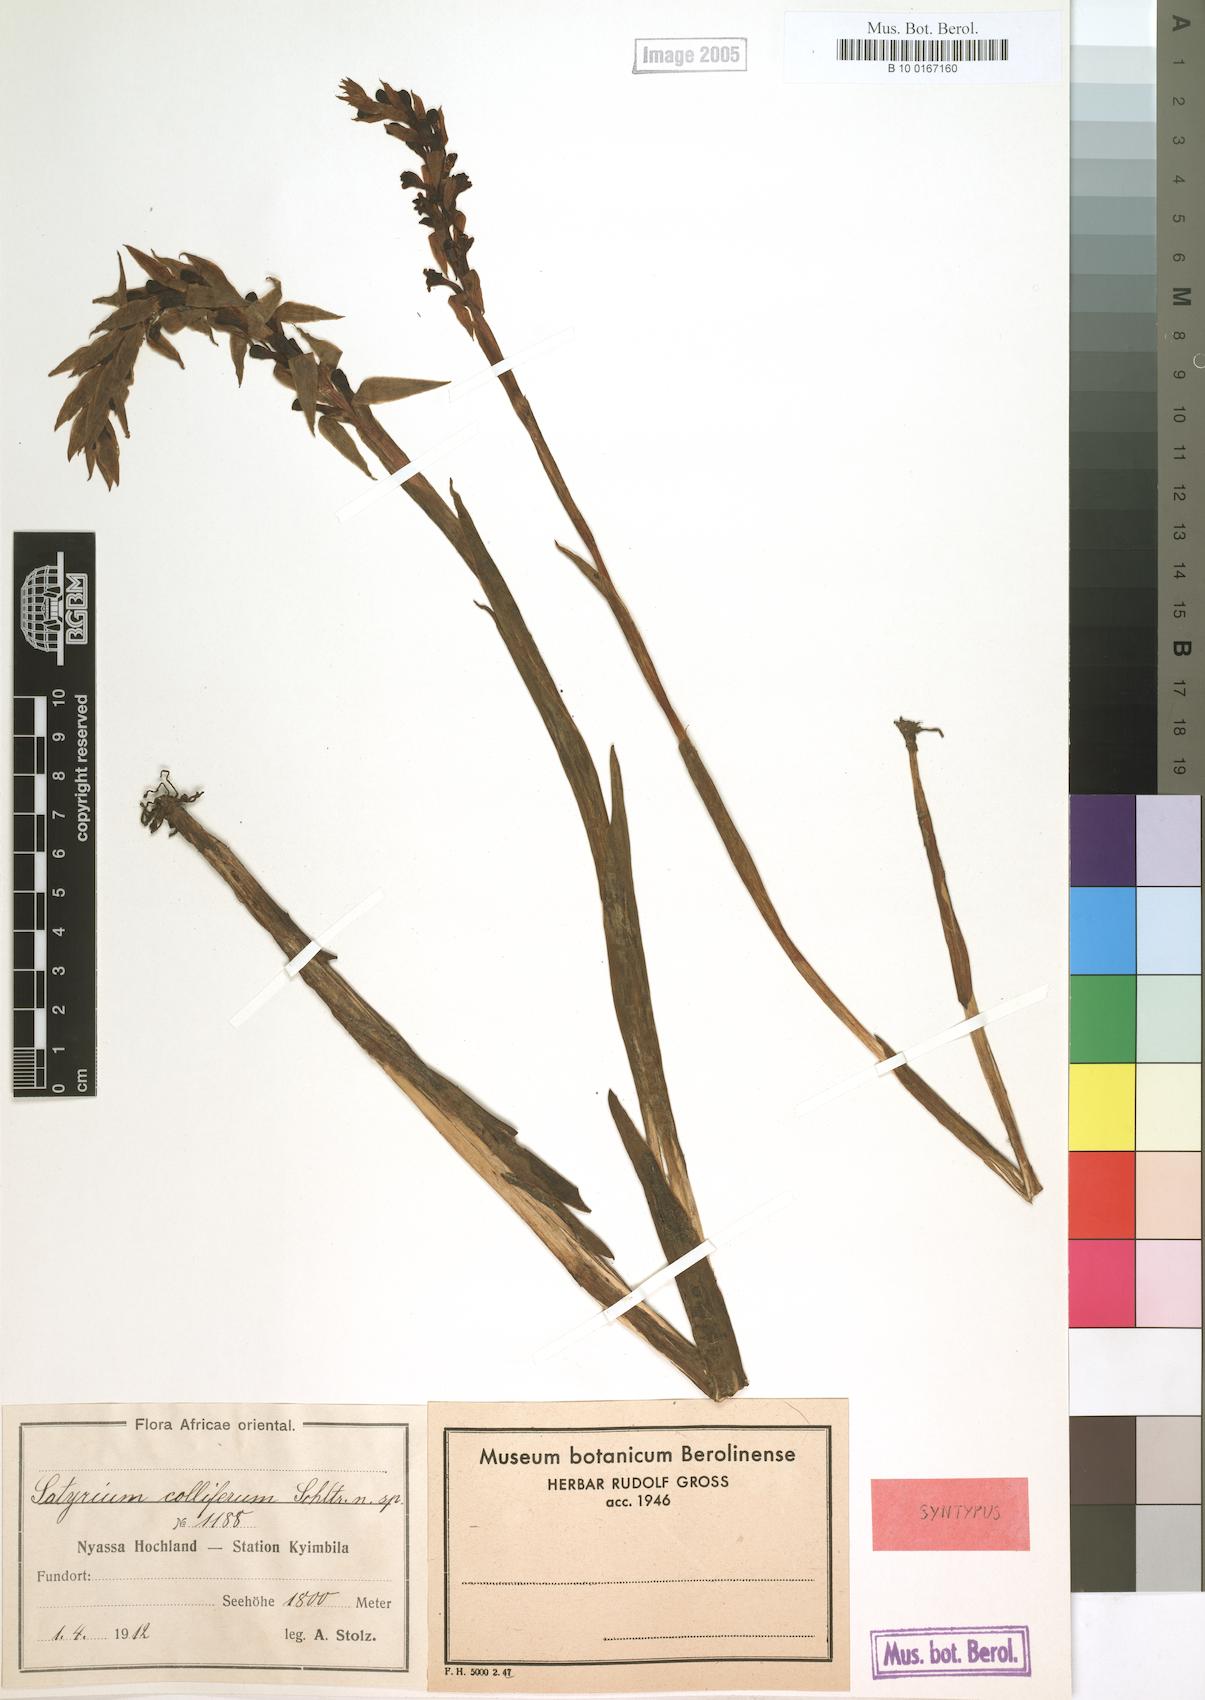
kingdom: Plantae
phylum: Tracheophyta
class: Liliopsida
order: Asparagales
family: Orchidaceae
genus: Satyrium
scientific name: Satyrium neglectum
